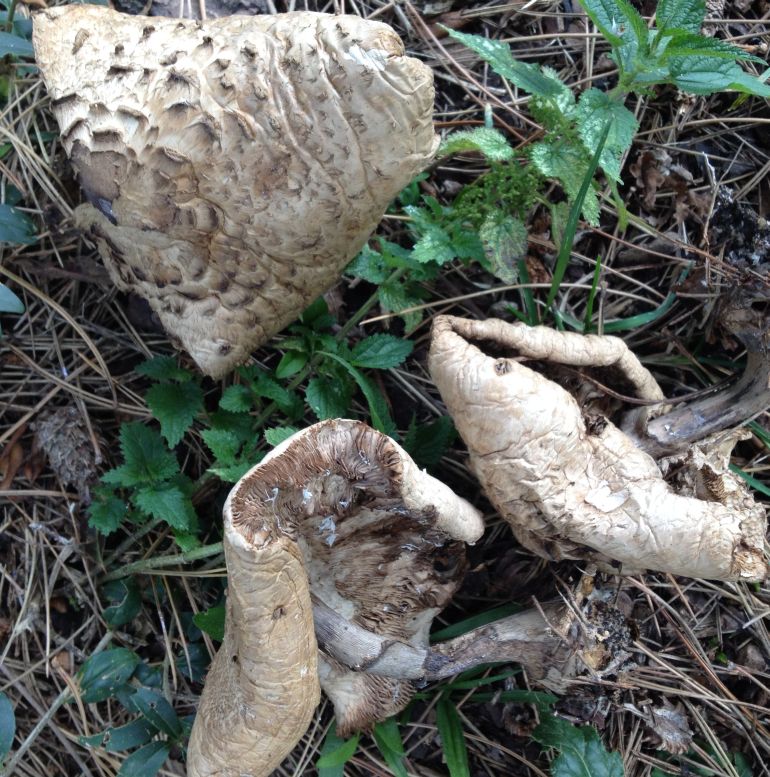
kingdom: Fungi
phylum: Basidiomycota
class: Agaricomycetes
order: Agaricales
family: Agaricaceae
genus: Chlorophyllum
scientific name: Chlorophyllum rhacodes
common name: ægte rabarberhat
